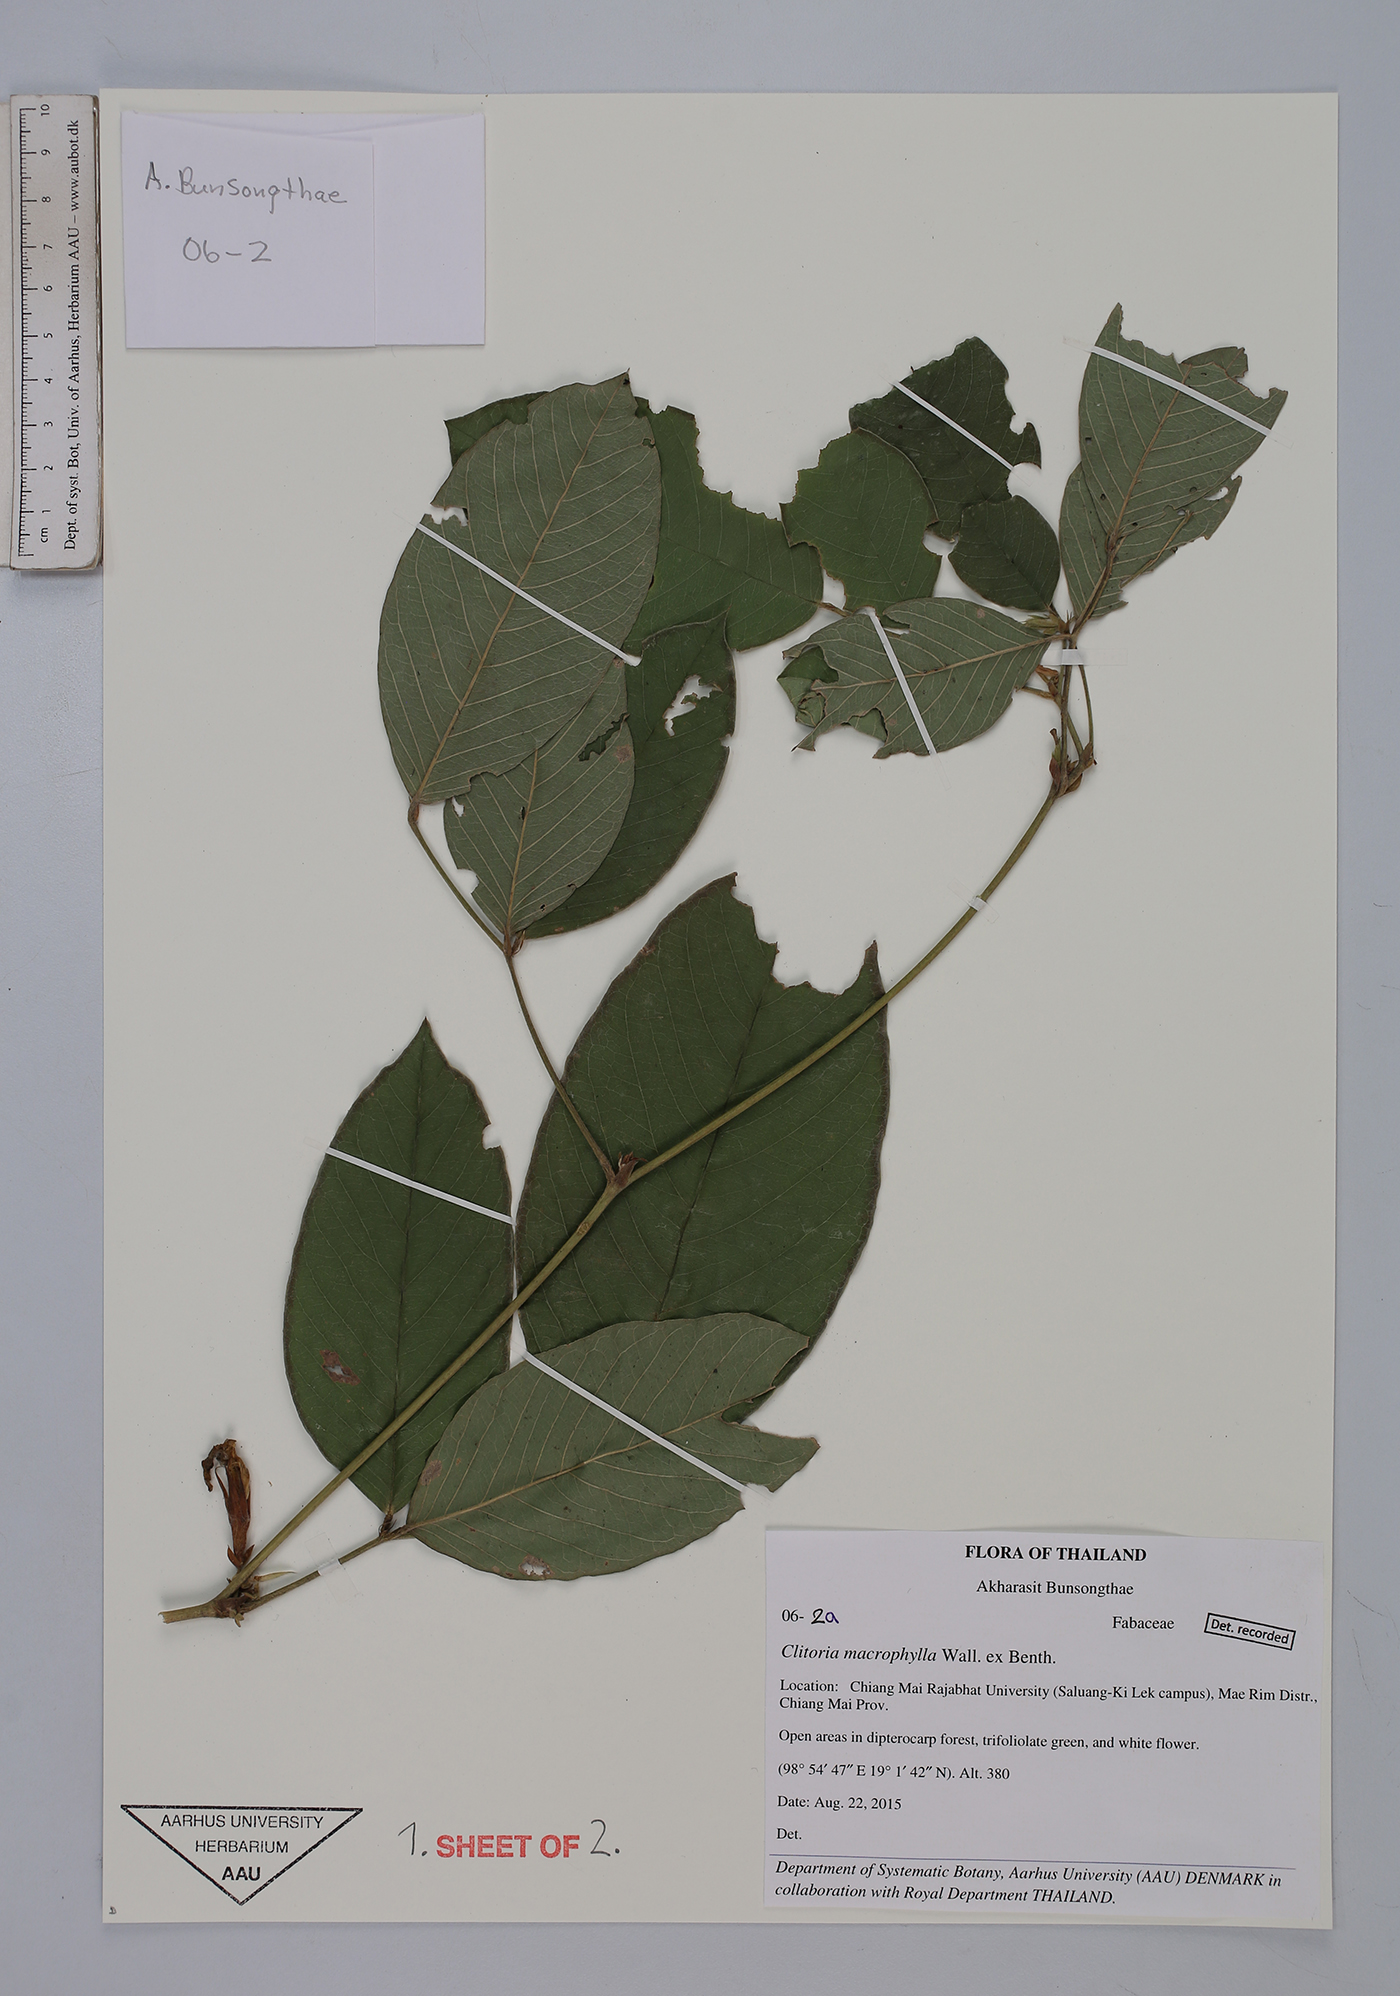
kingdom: Plantae
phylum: Tracheophyta
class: Magnoliopsida
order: Fabales
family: Fabaceae
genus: Clitoria
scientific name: Clitoria macrophylla
